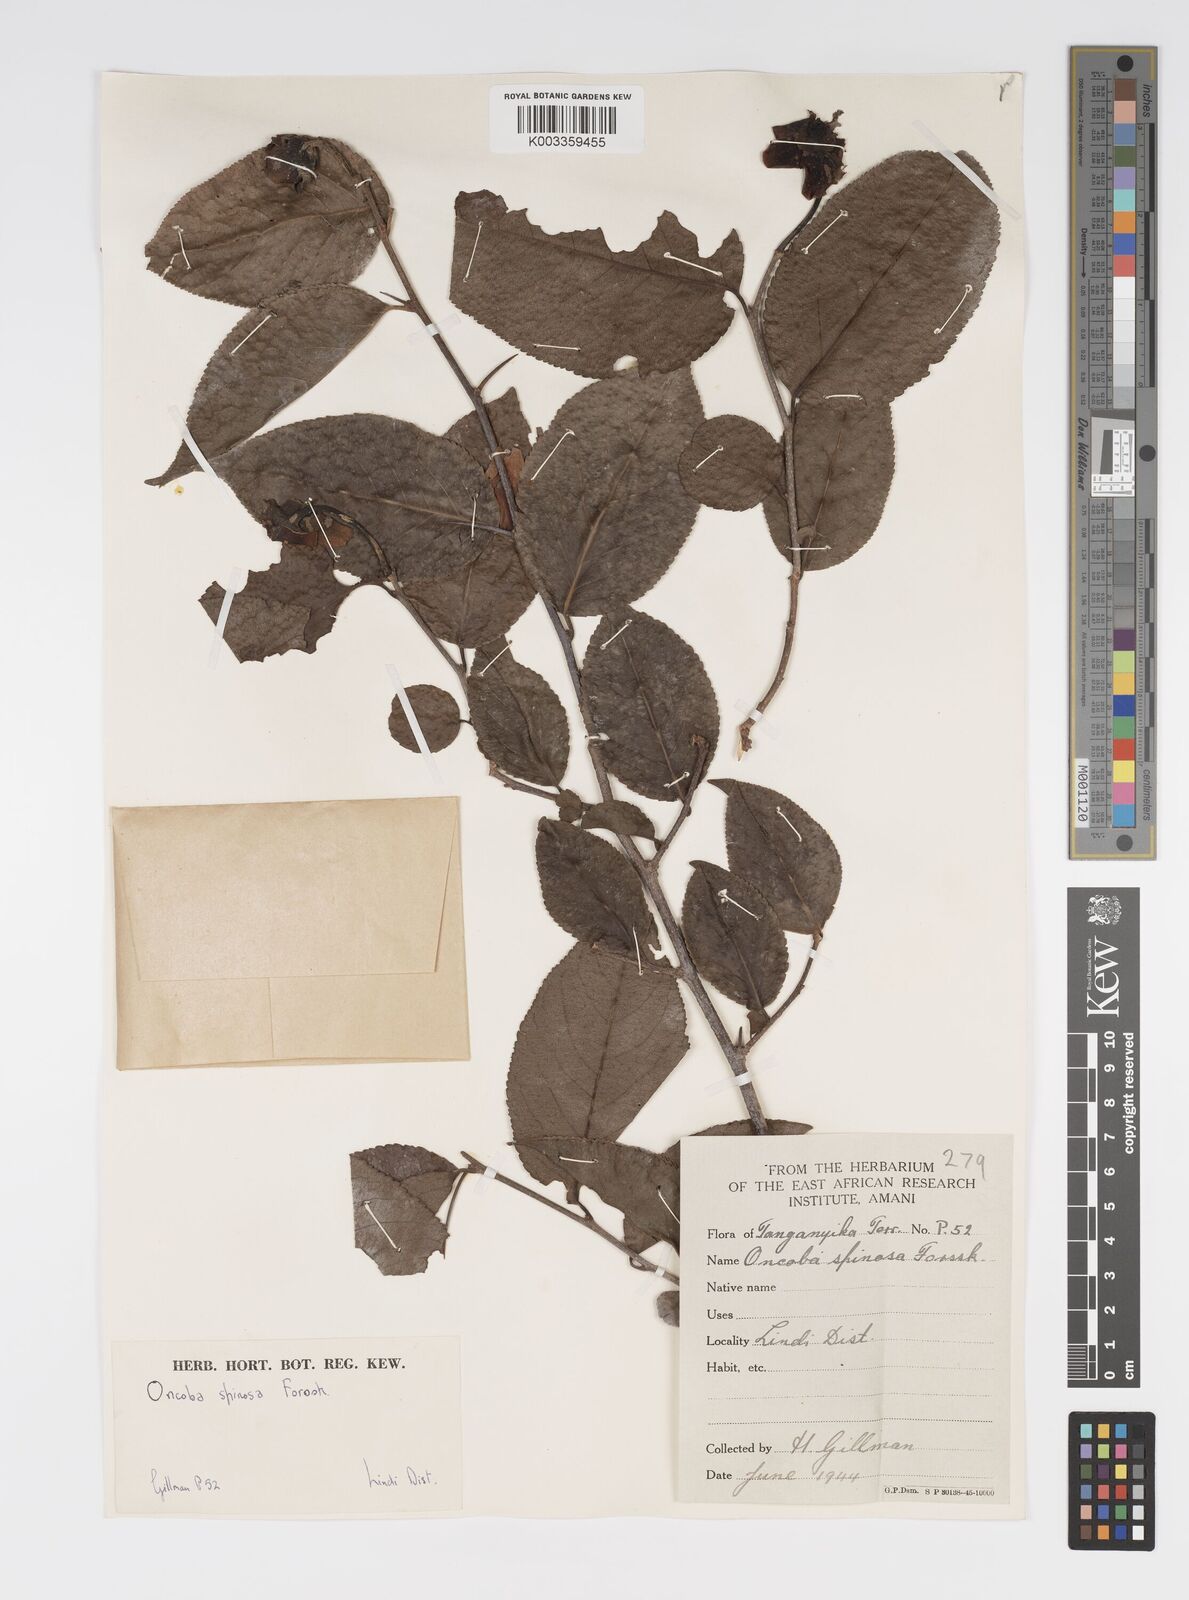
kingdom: Plantae
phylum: Tracheophyta
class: Magnoliopsida
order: Malpighiales
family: Salicaceae
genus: Oncoba
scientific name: Oncoba spinosa
